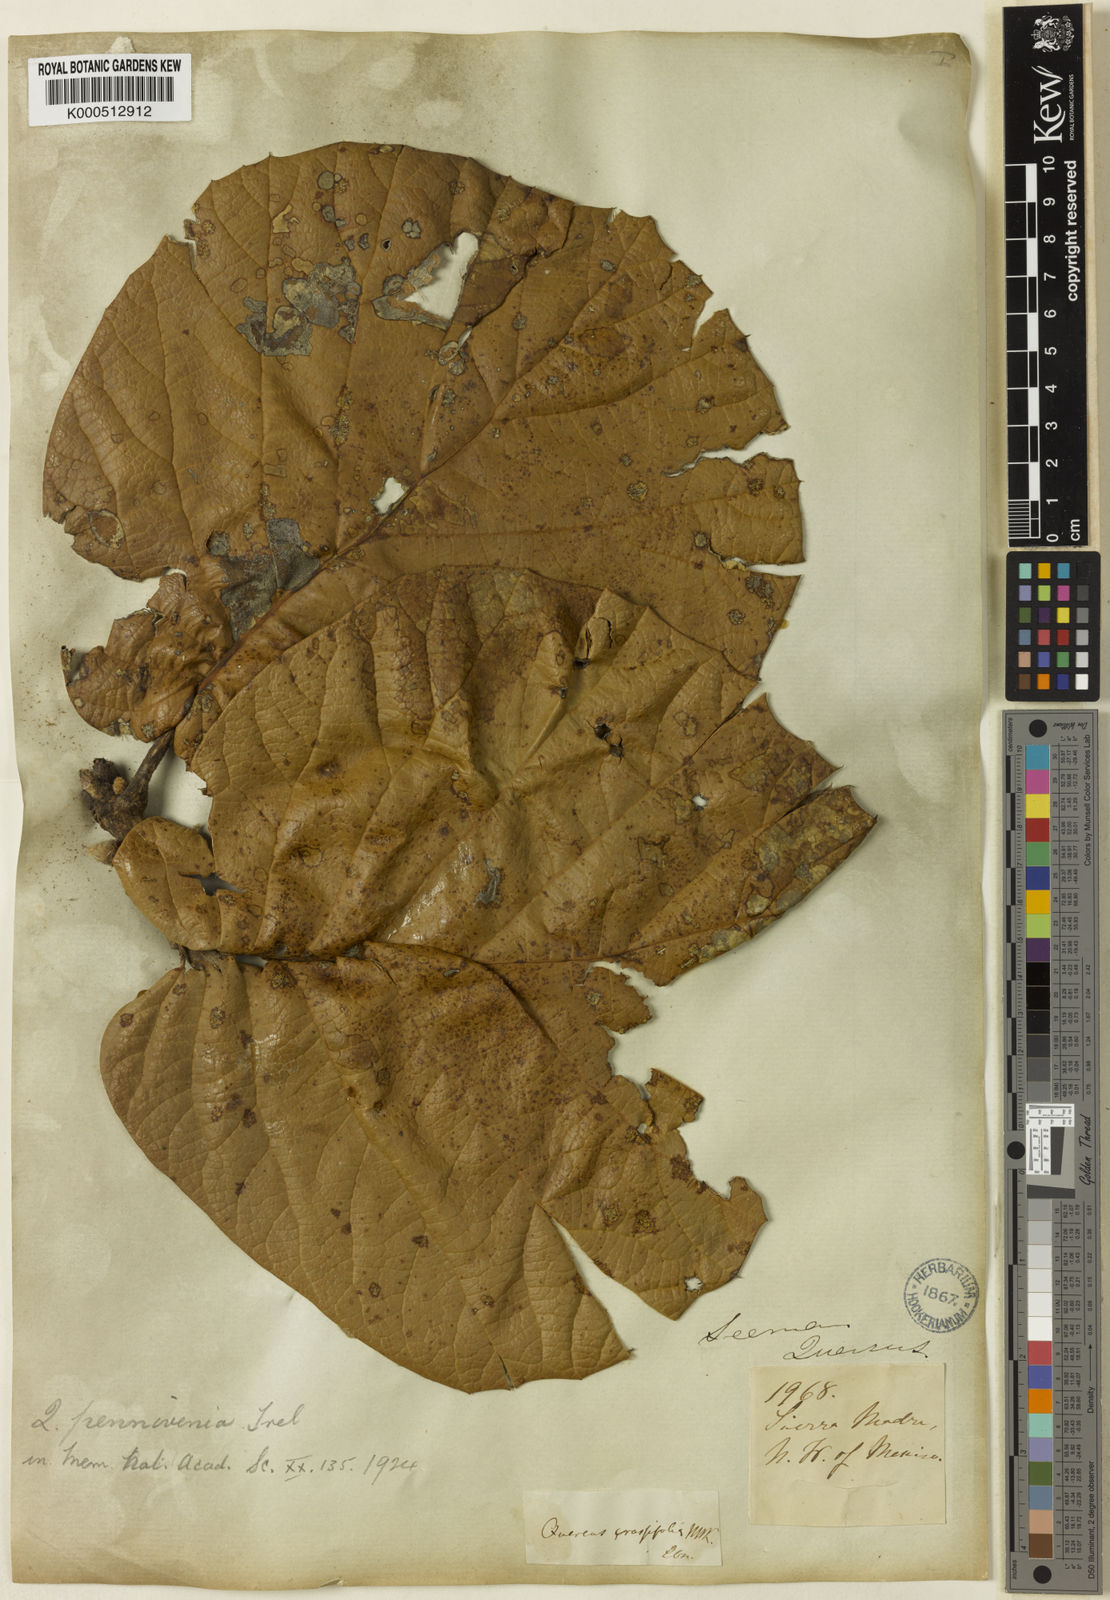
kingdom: Plantae
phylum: Tracheophyta
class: Magnoliopsida
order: Fagales
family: Fagaceae
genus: Quercus
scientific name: Quercus pennivenia
